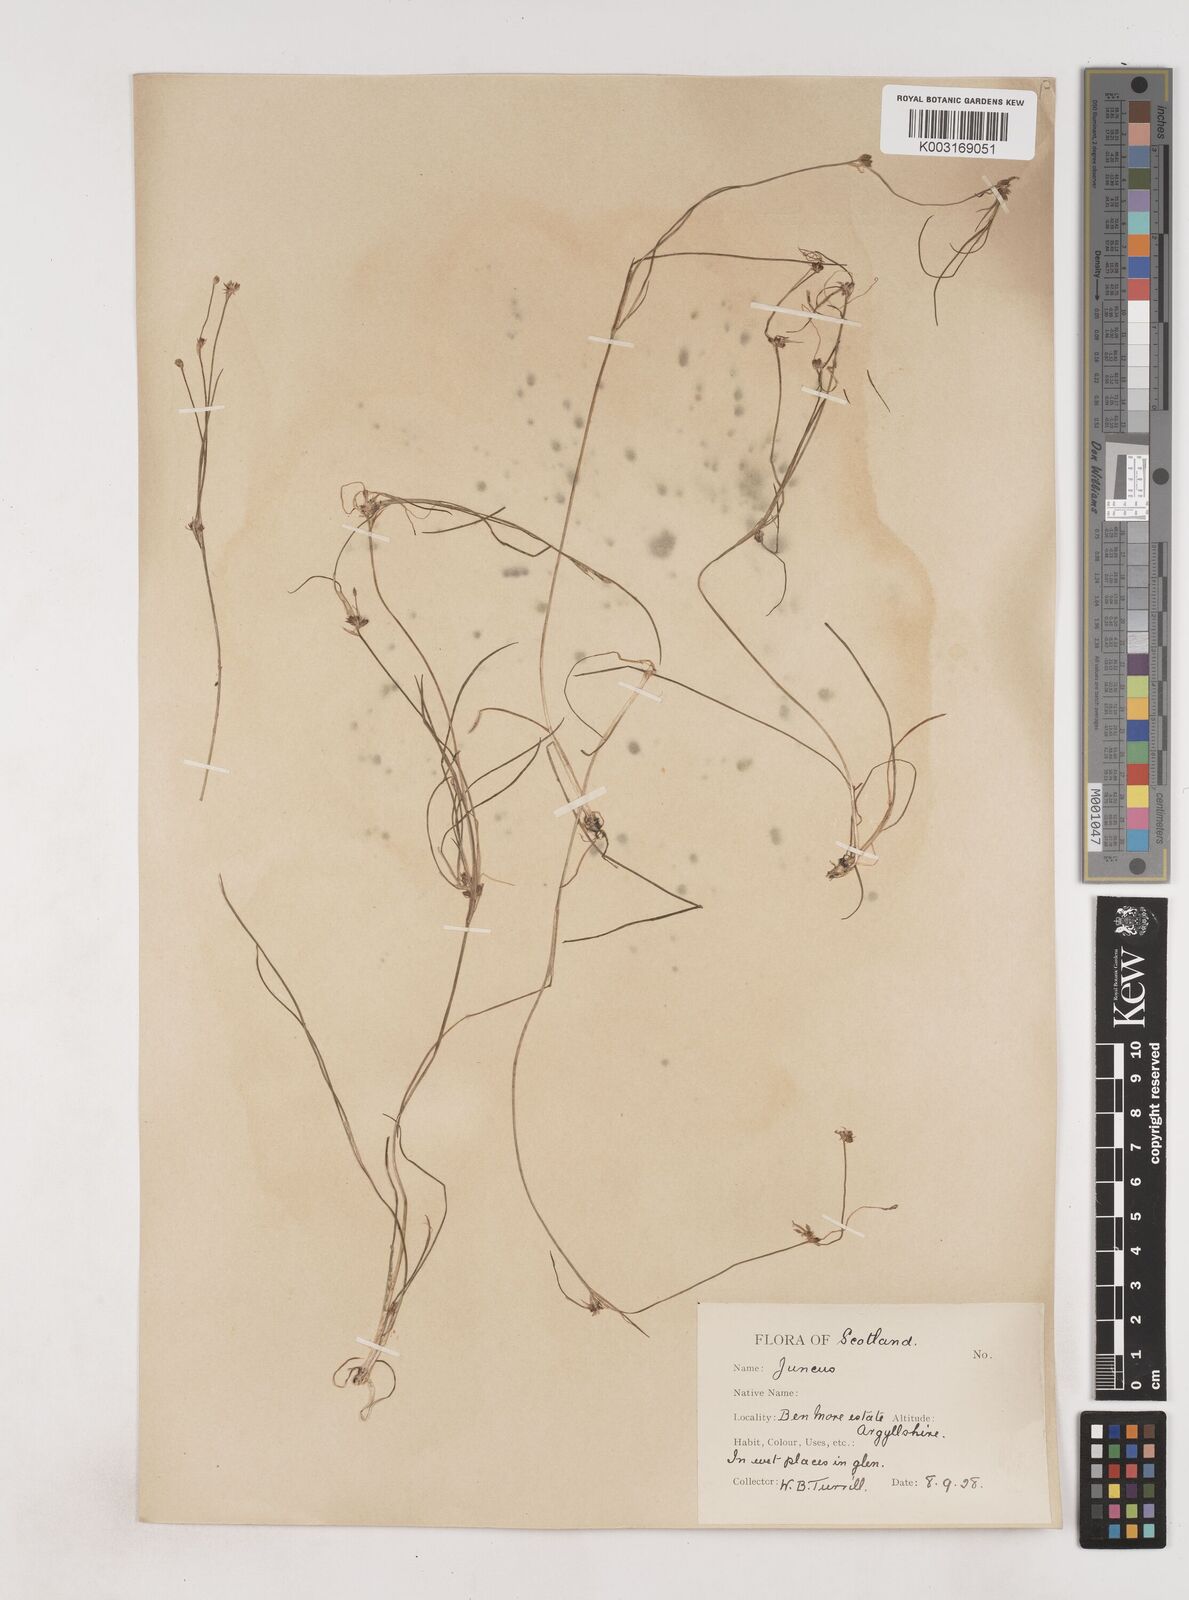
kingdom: Plantae
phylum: Tracheophyta
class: Liliopsida
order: Poales
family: Juncaceae
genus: Juncus
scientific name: Juncus bulbosus
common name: Bulbous rush
